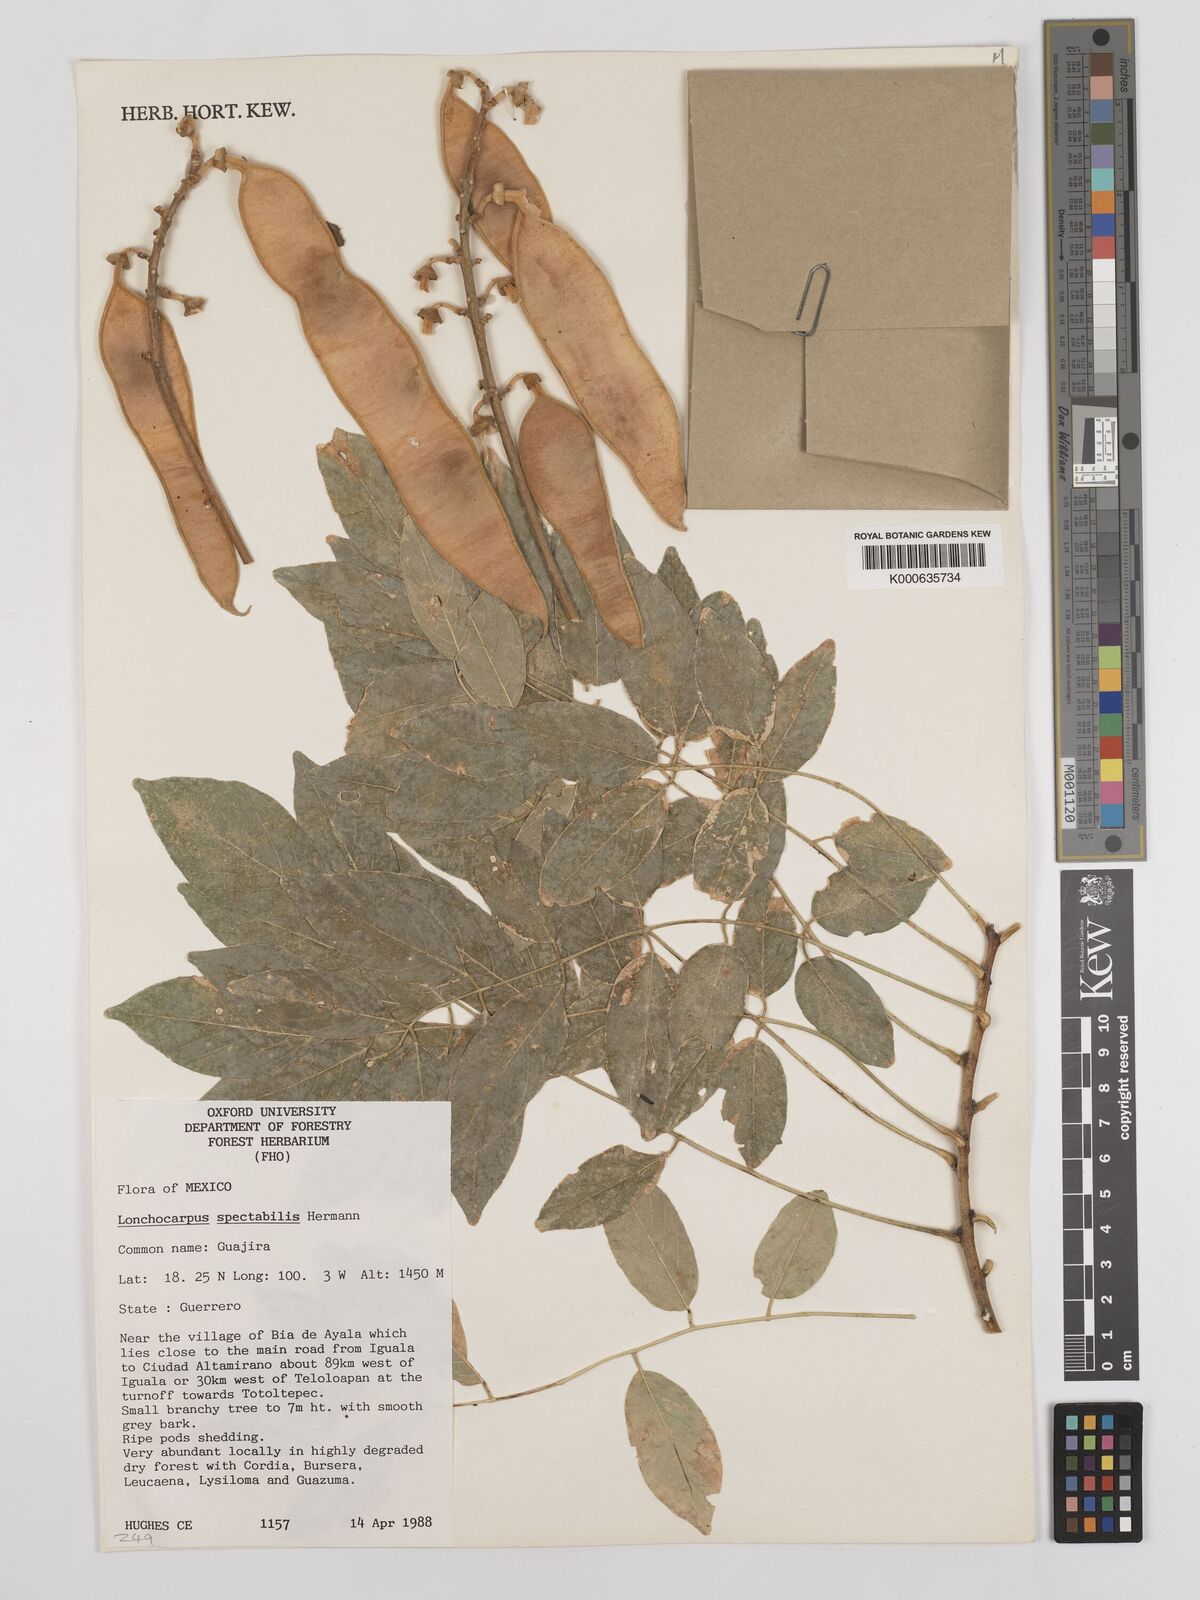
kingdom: Plantae
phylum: Tracheophyta
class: Magnoliopsida
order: Fabales
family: Fabaceae
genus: Lonchocarpus
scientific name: Lonchocarpus spectabilis
